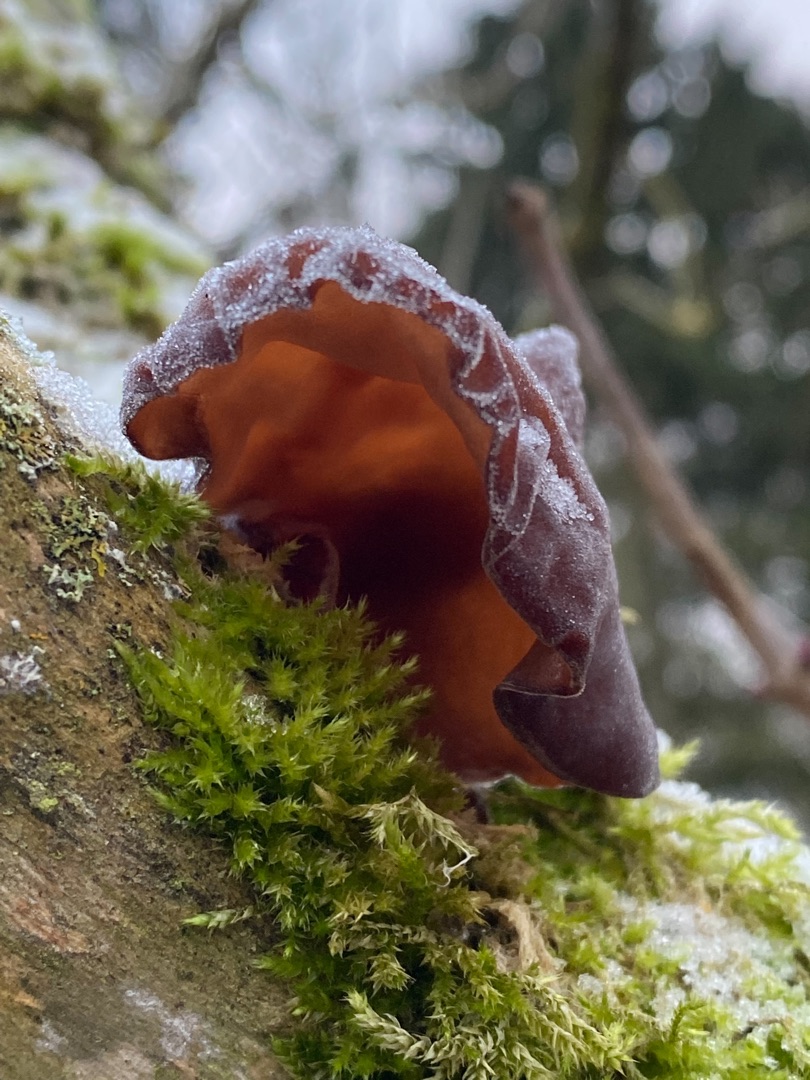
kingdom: Fungi
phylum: Basidiomycota
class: Agaricomycetes
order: Auriculariales
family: Auriculariaceae
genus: Auricularia
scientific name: Auricularia auricula-judae
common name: Almindelig judasøre
